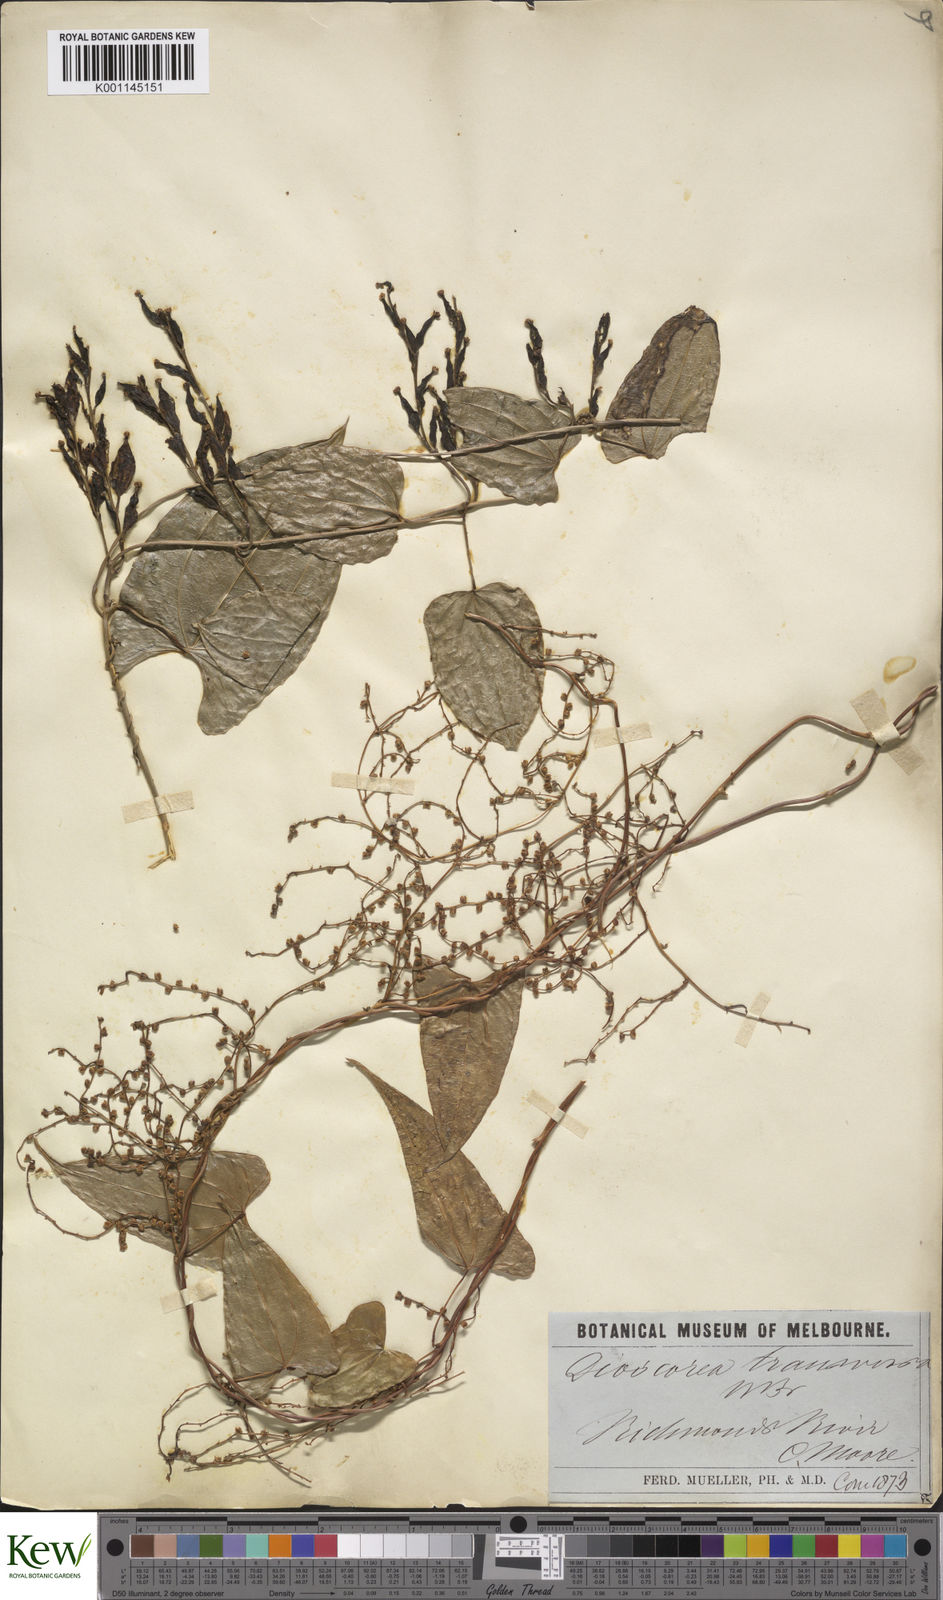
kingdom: Plantae
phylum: Tracheophyta
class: Liliopsida
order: Dioscoreales
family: Dioscoreaceae
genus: Dioscorea
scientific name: Dioscorea transversa
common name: Long yam
